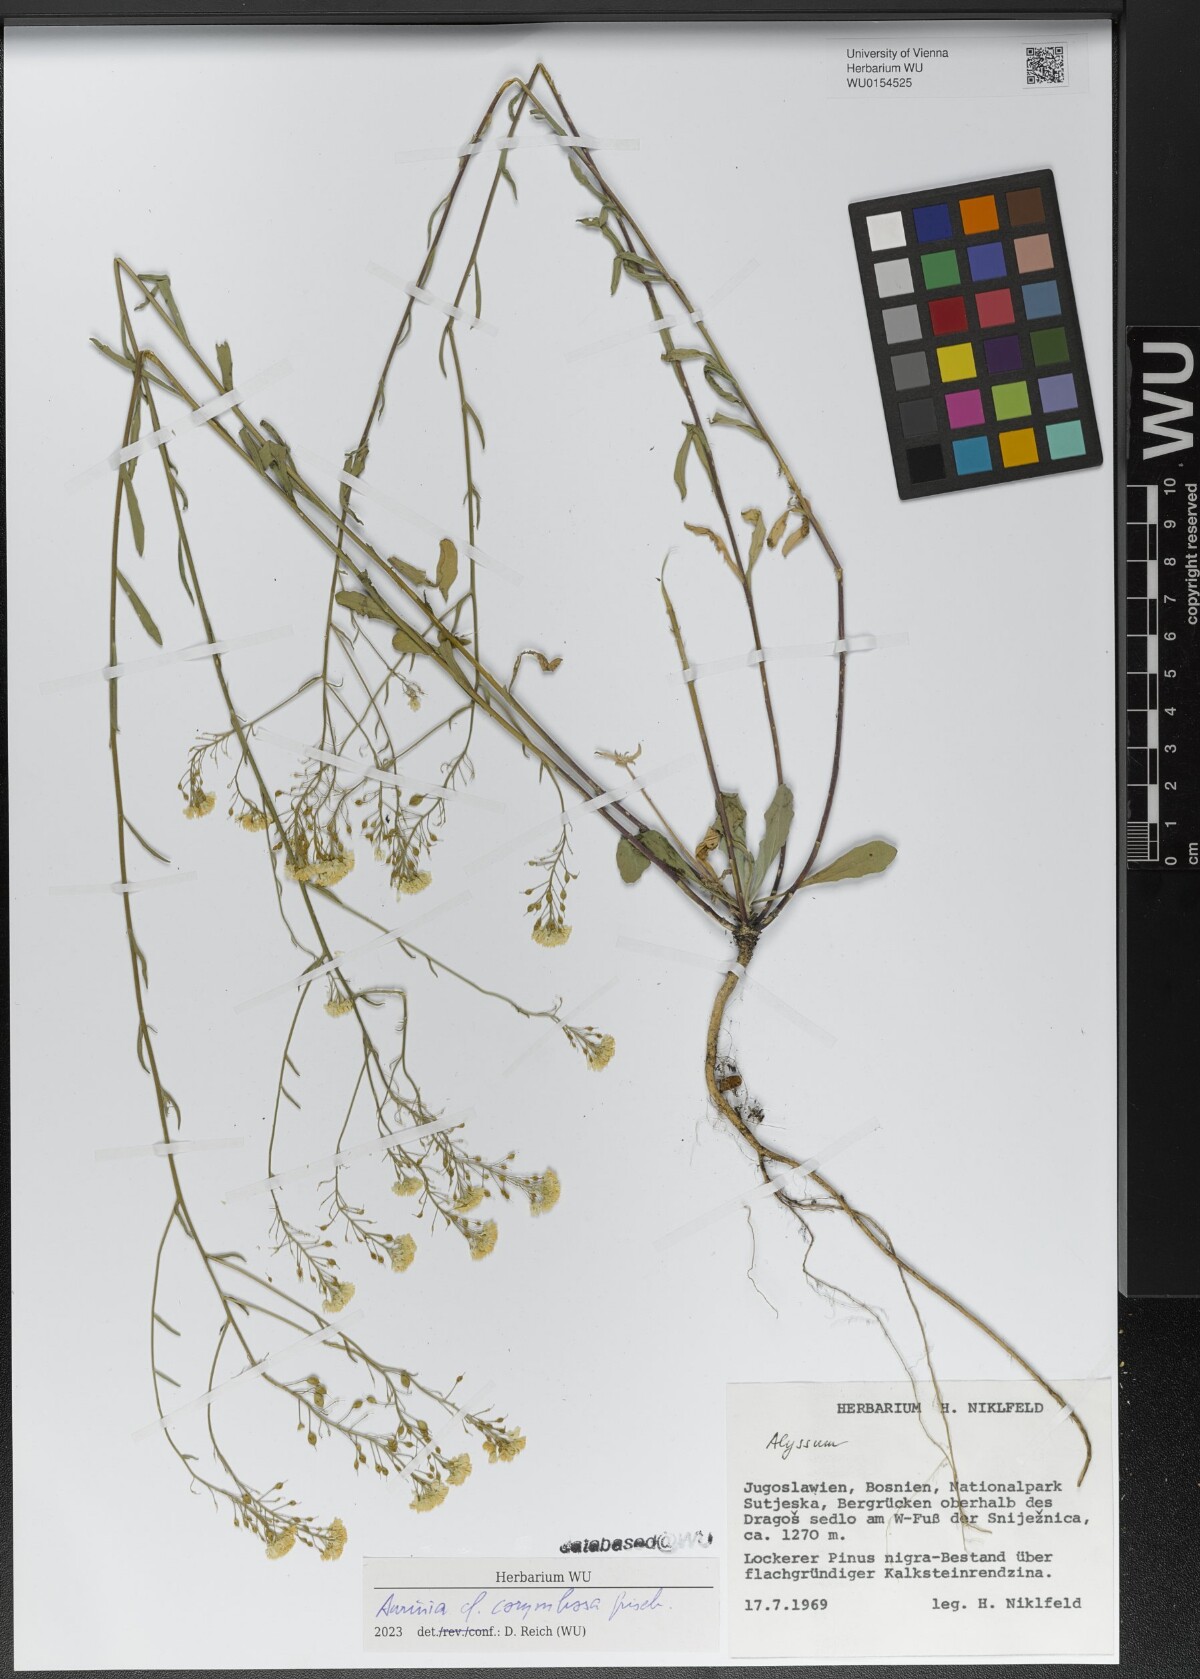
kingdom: Plantae
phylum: Tracheophyta
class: Magnoliopsida
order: Brassicales
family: Brassicaceae
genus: Aurinia
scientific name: Aurinia corymbosa
